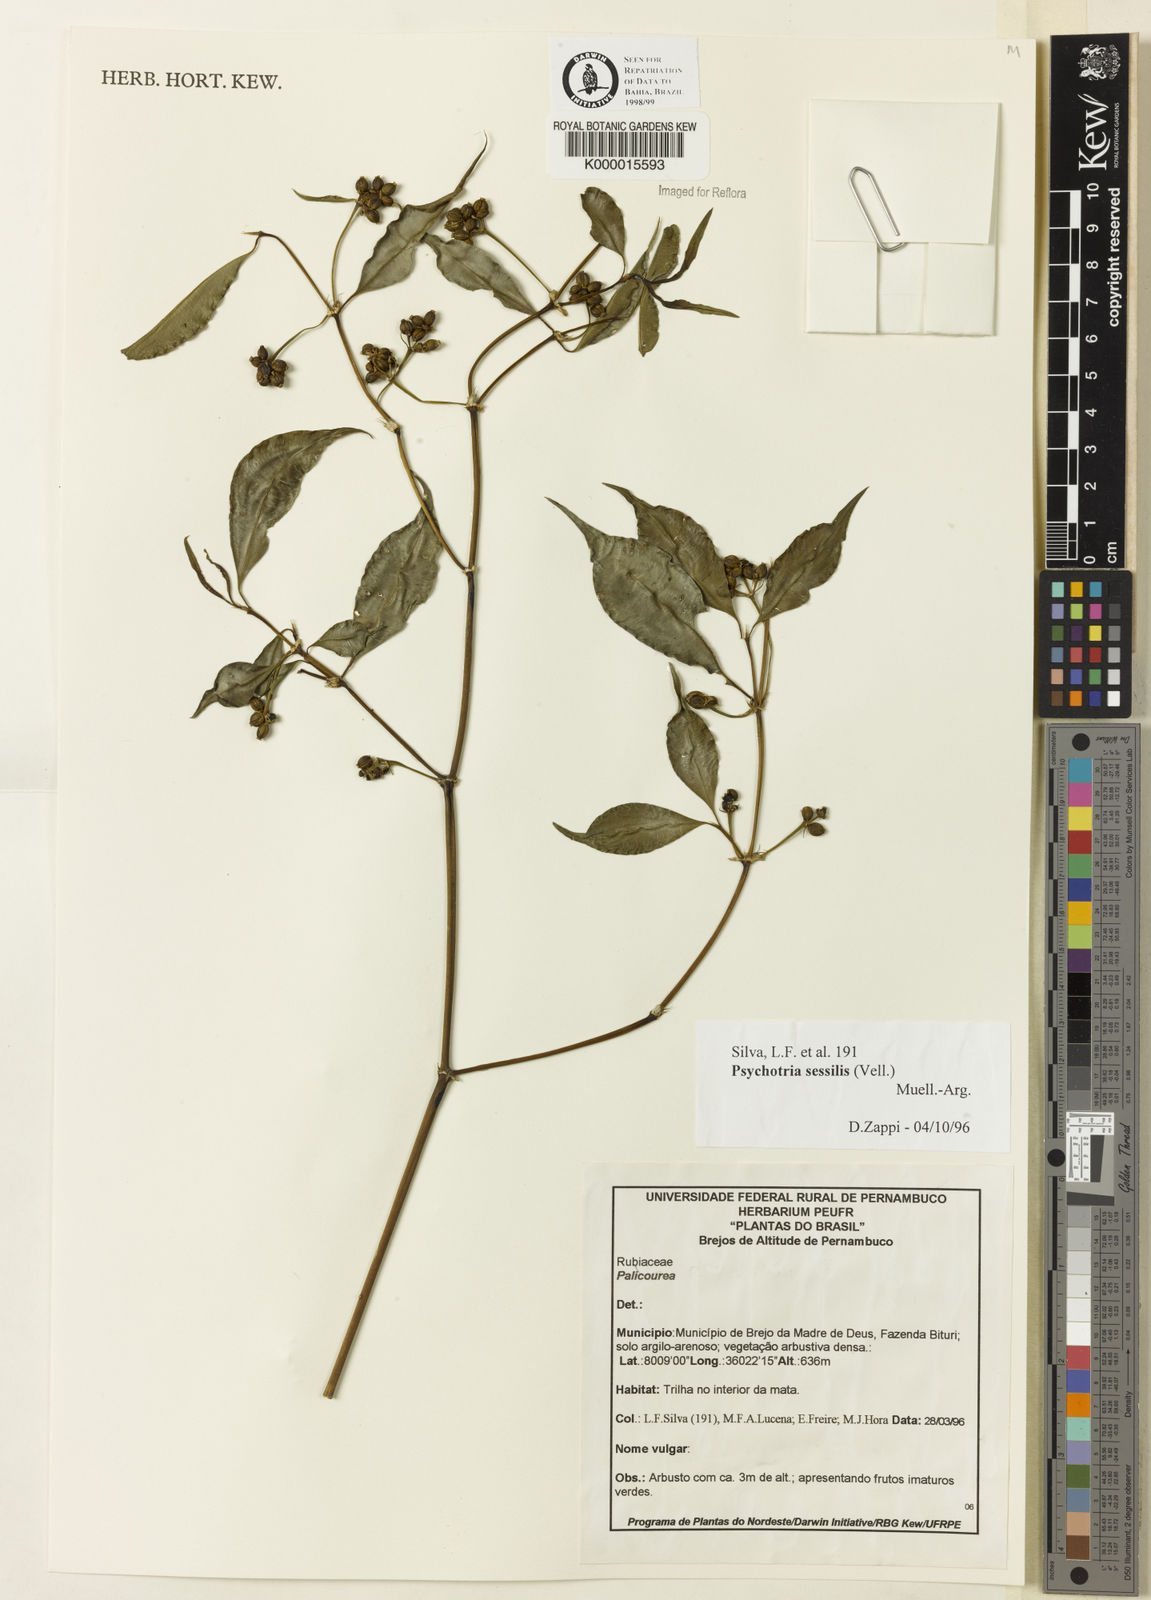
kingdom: Plantae
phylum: Tracheophyta
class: Magnoliopsida
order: Gentianales
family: Rubiaceae
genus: Psychotria
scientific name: Psychotria
